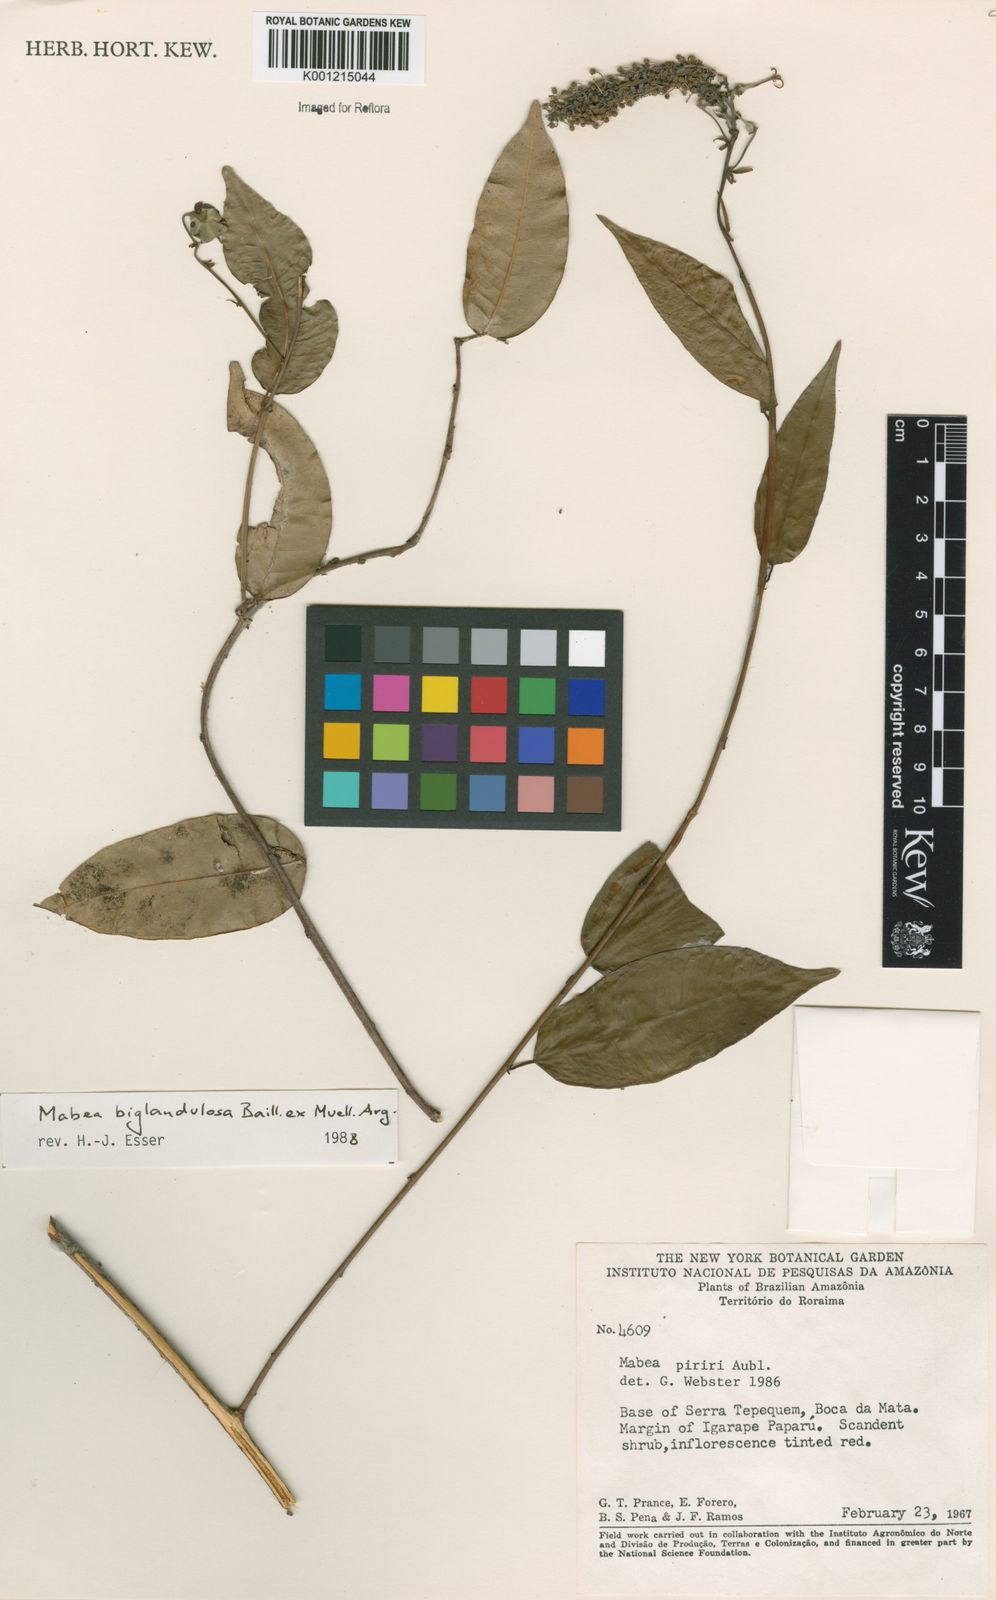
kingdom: Plantae
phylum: Tracheophyta
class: Magnoliopsida
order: Malpighiales
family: Euphorbiaceae
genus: Mabea
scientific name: Mabea
